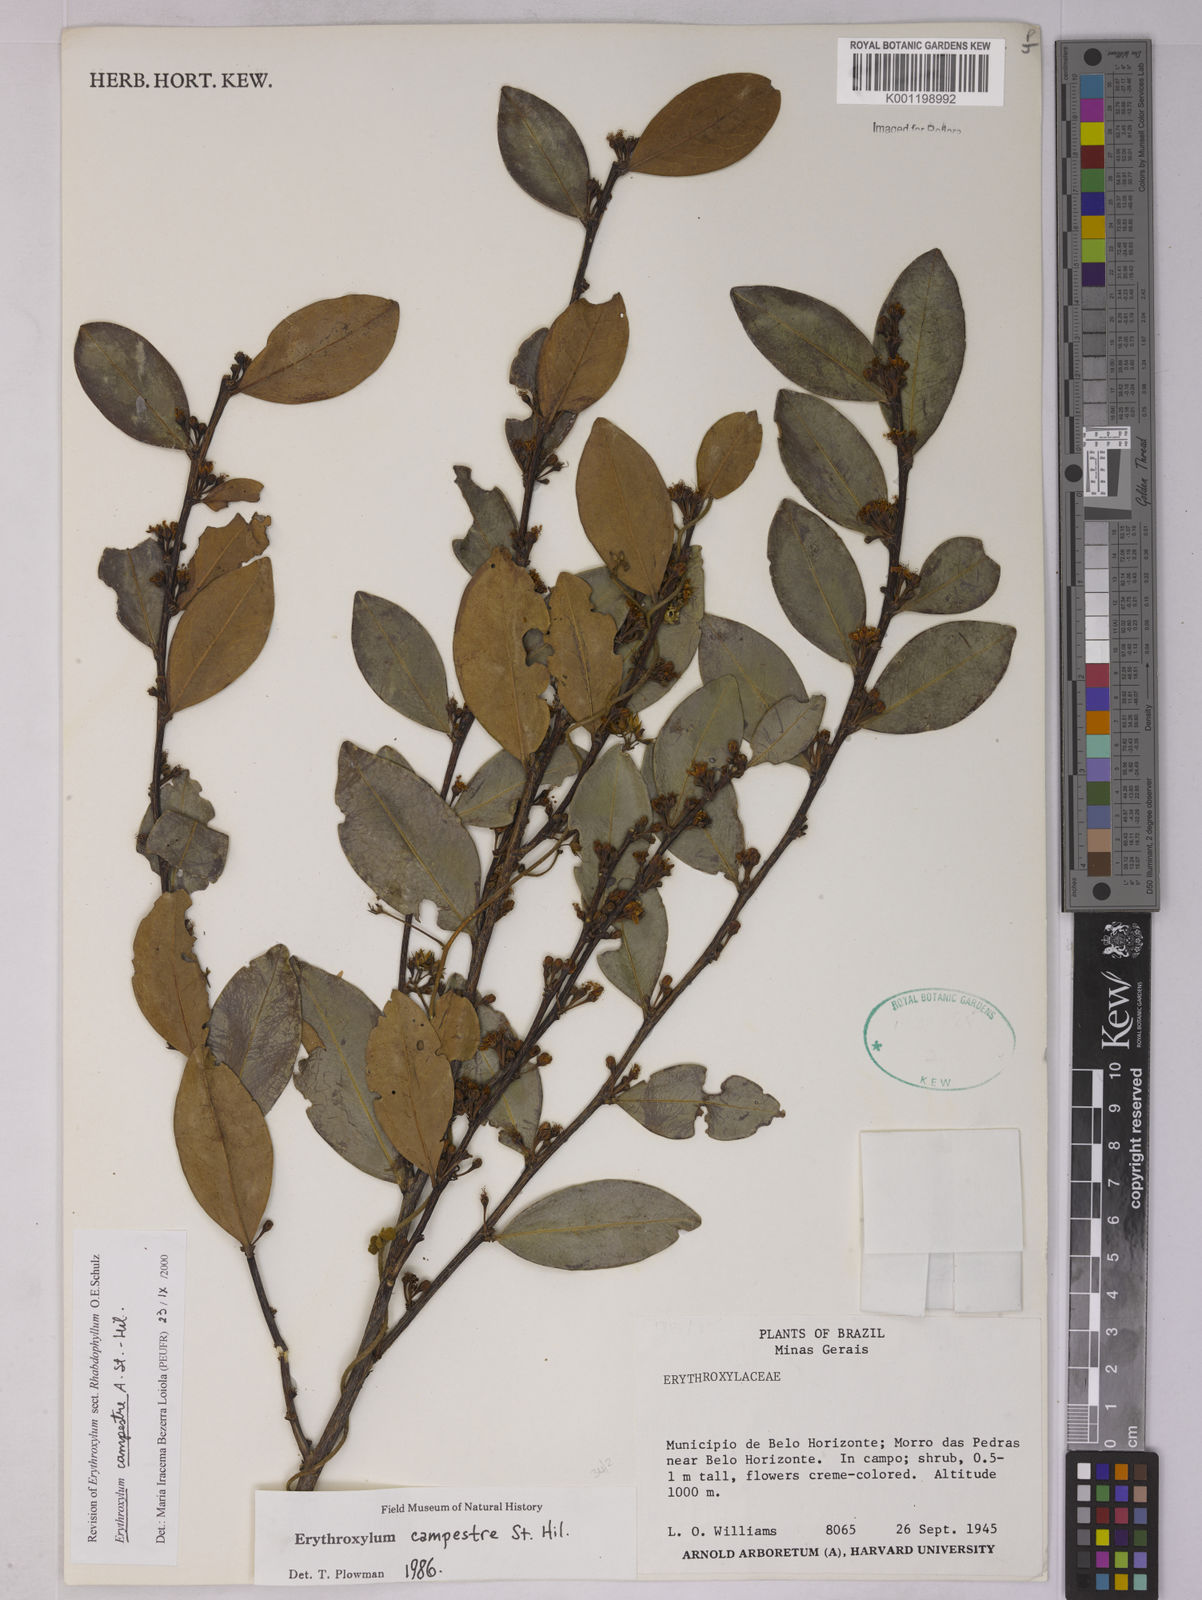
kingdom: Plantae
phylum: Tracheophyta
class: Magnoliopsida
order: Malpighiales
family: Erythroxylaceae
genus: Erythroxylum
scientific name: Erythroxylum campestre
